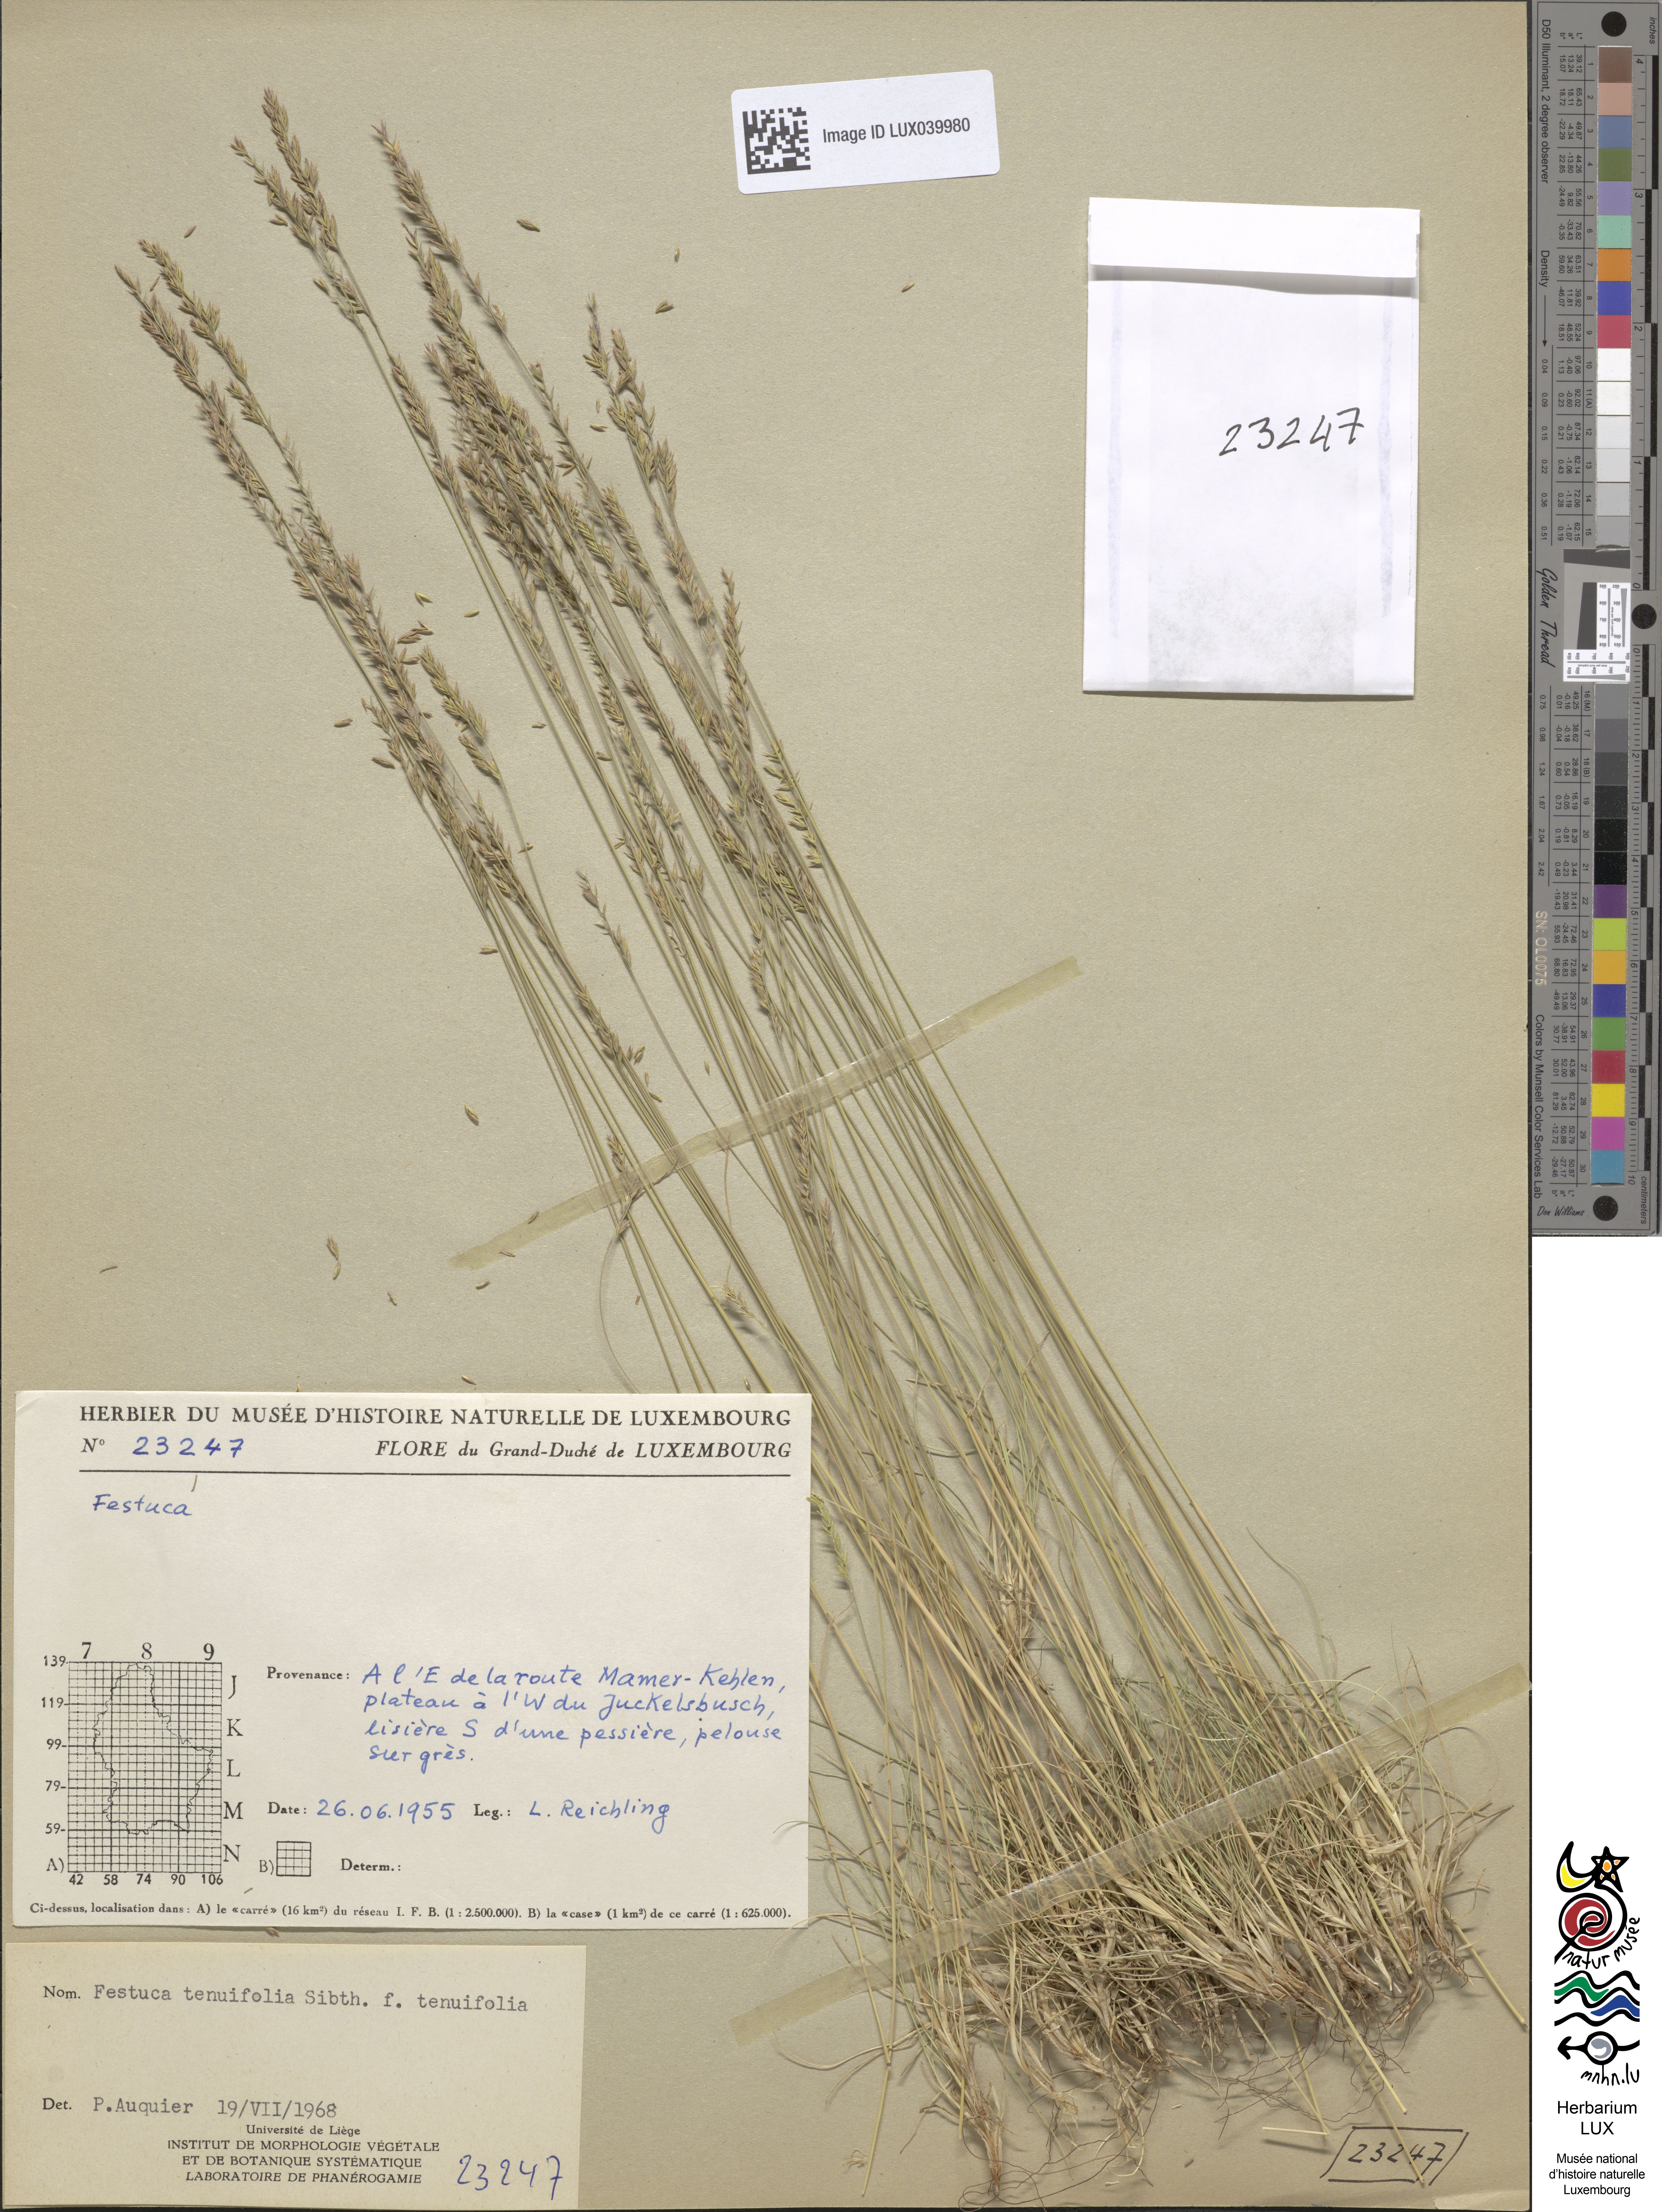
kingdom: Plantae
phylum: Tracheophyta
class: Liliopsida
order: Poales
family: Poaceae
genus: Festuca
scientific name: Festuca ovina
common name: Sheep fescue
